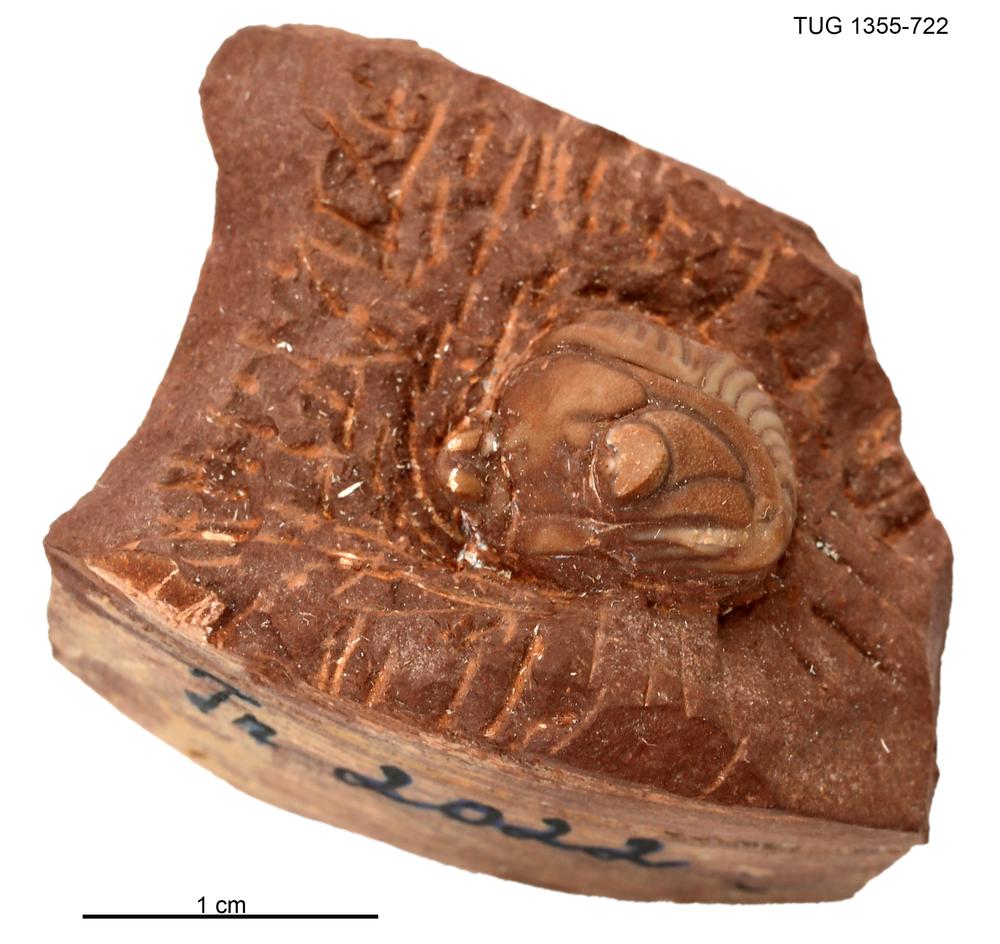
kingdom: Animalia
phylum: Arthropoda
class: Trilobita
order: Phacopida
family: Pterygometopidae
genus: Pterygometopus
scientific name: Pterygometopus
